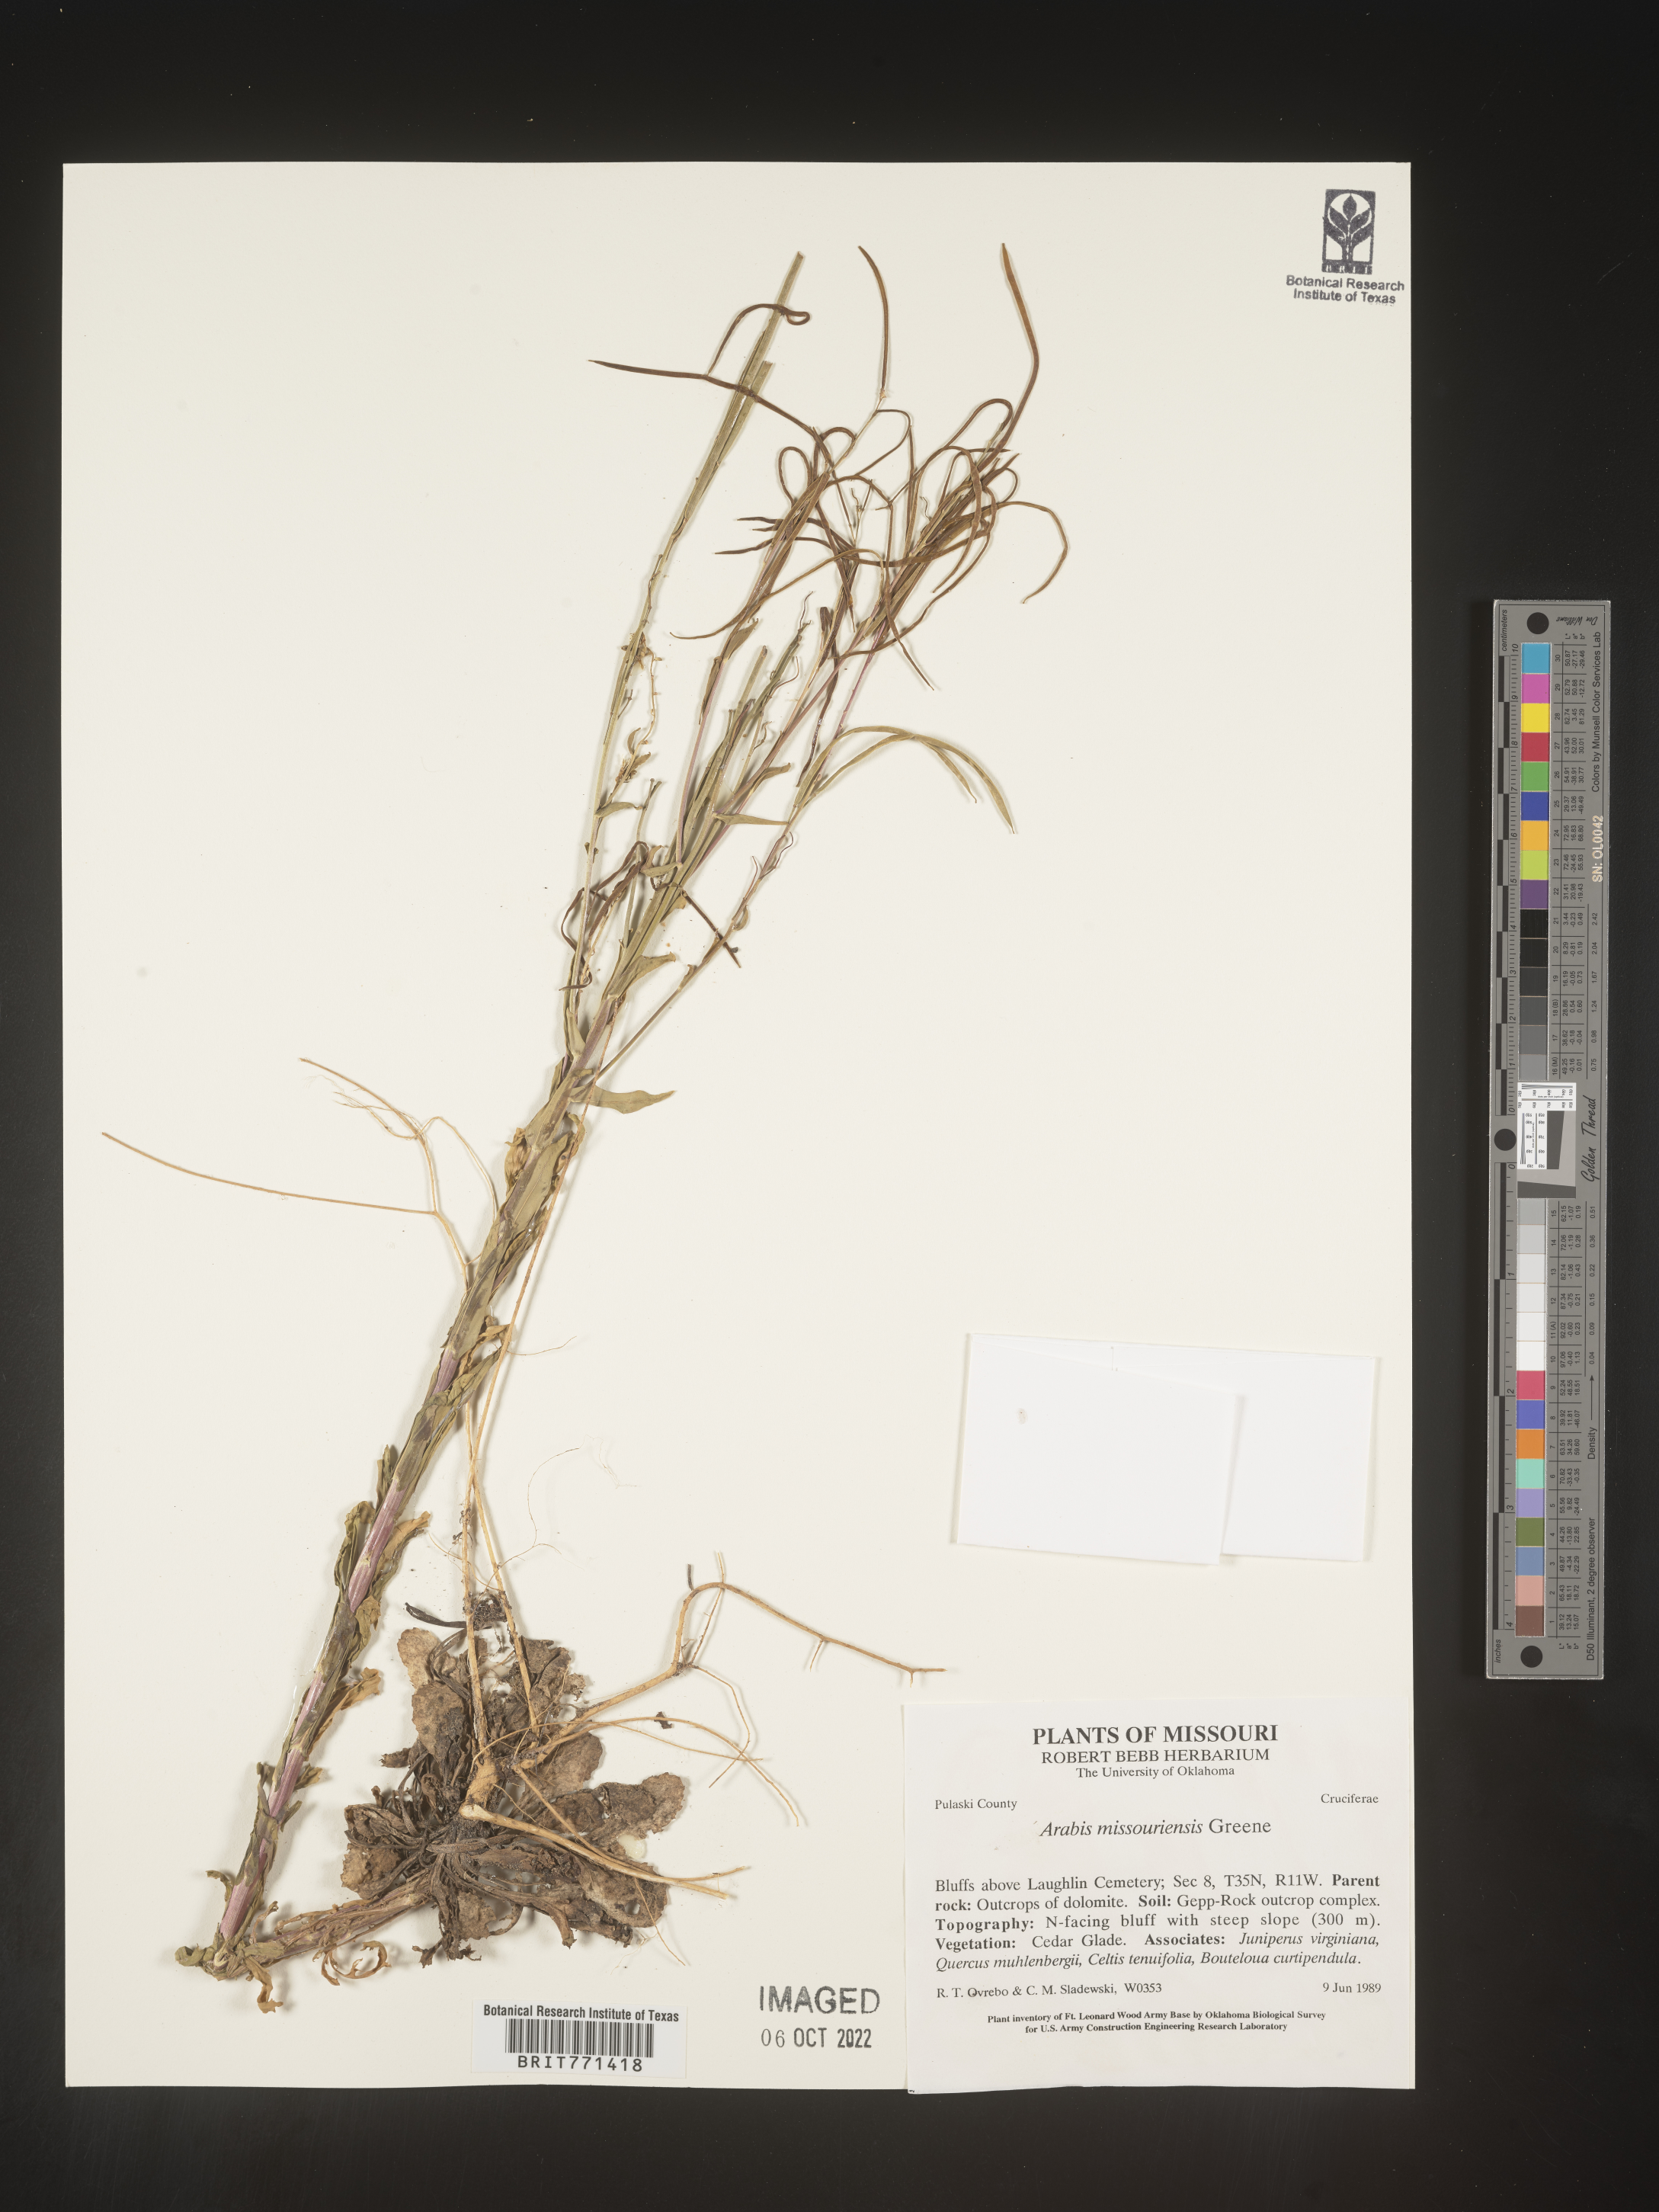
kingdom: Plantae
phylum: Tracheophyta
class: Magnoliopsida
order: Brassicales
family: Brassicaceae
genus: Arabis
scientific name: Arabis
